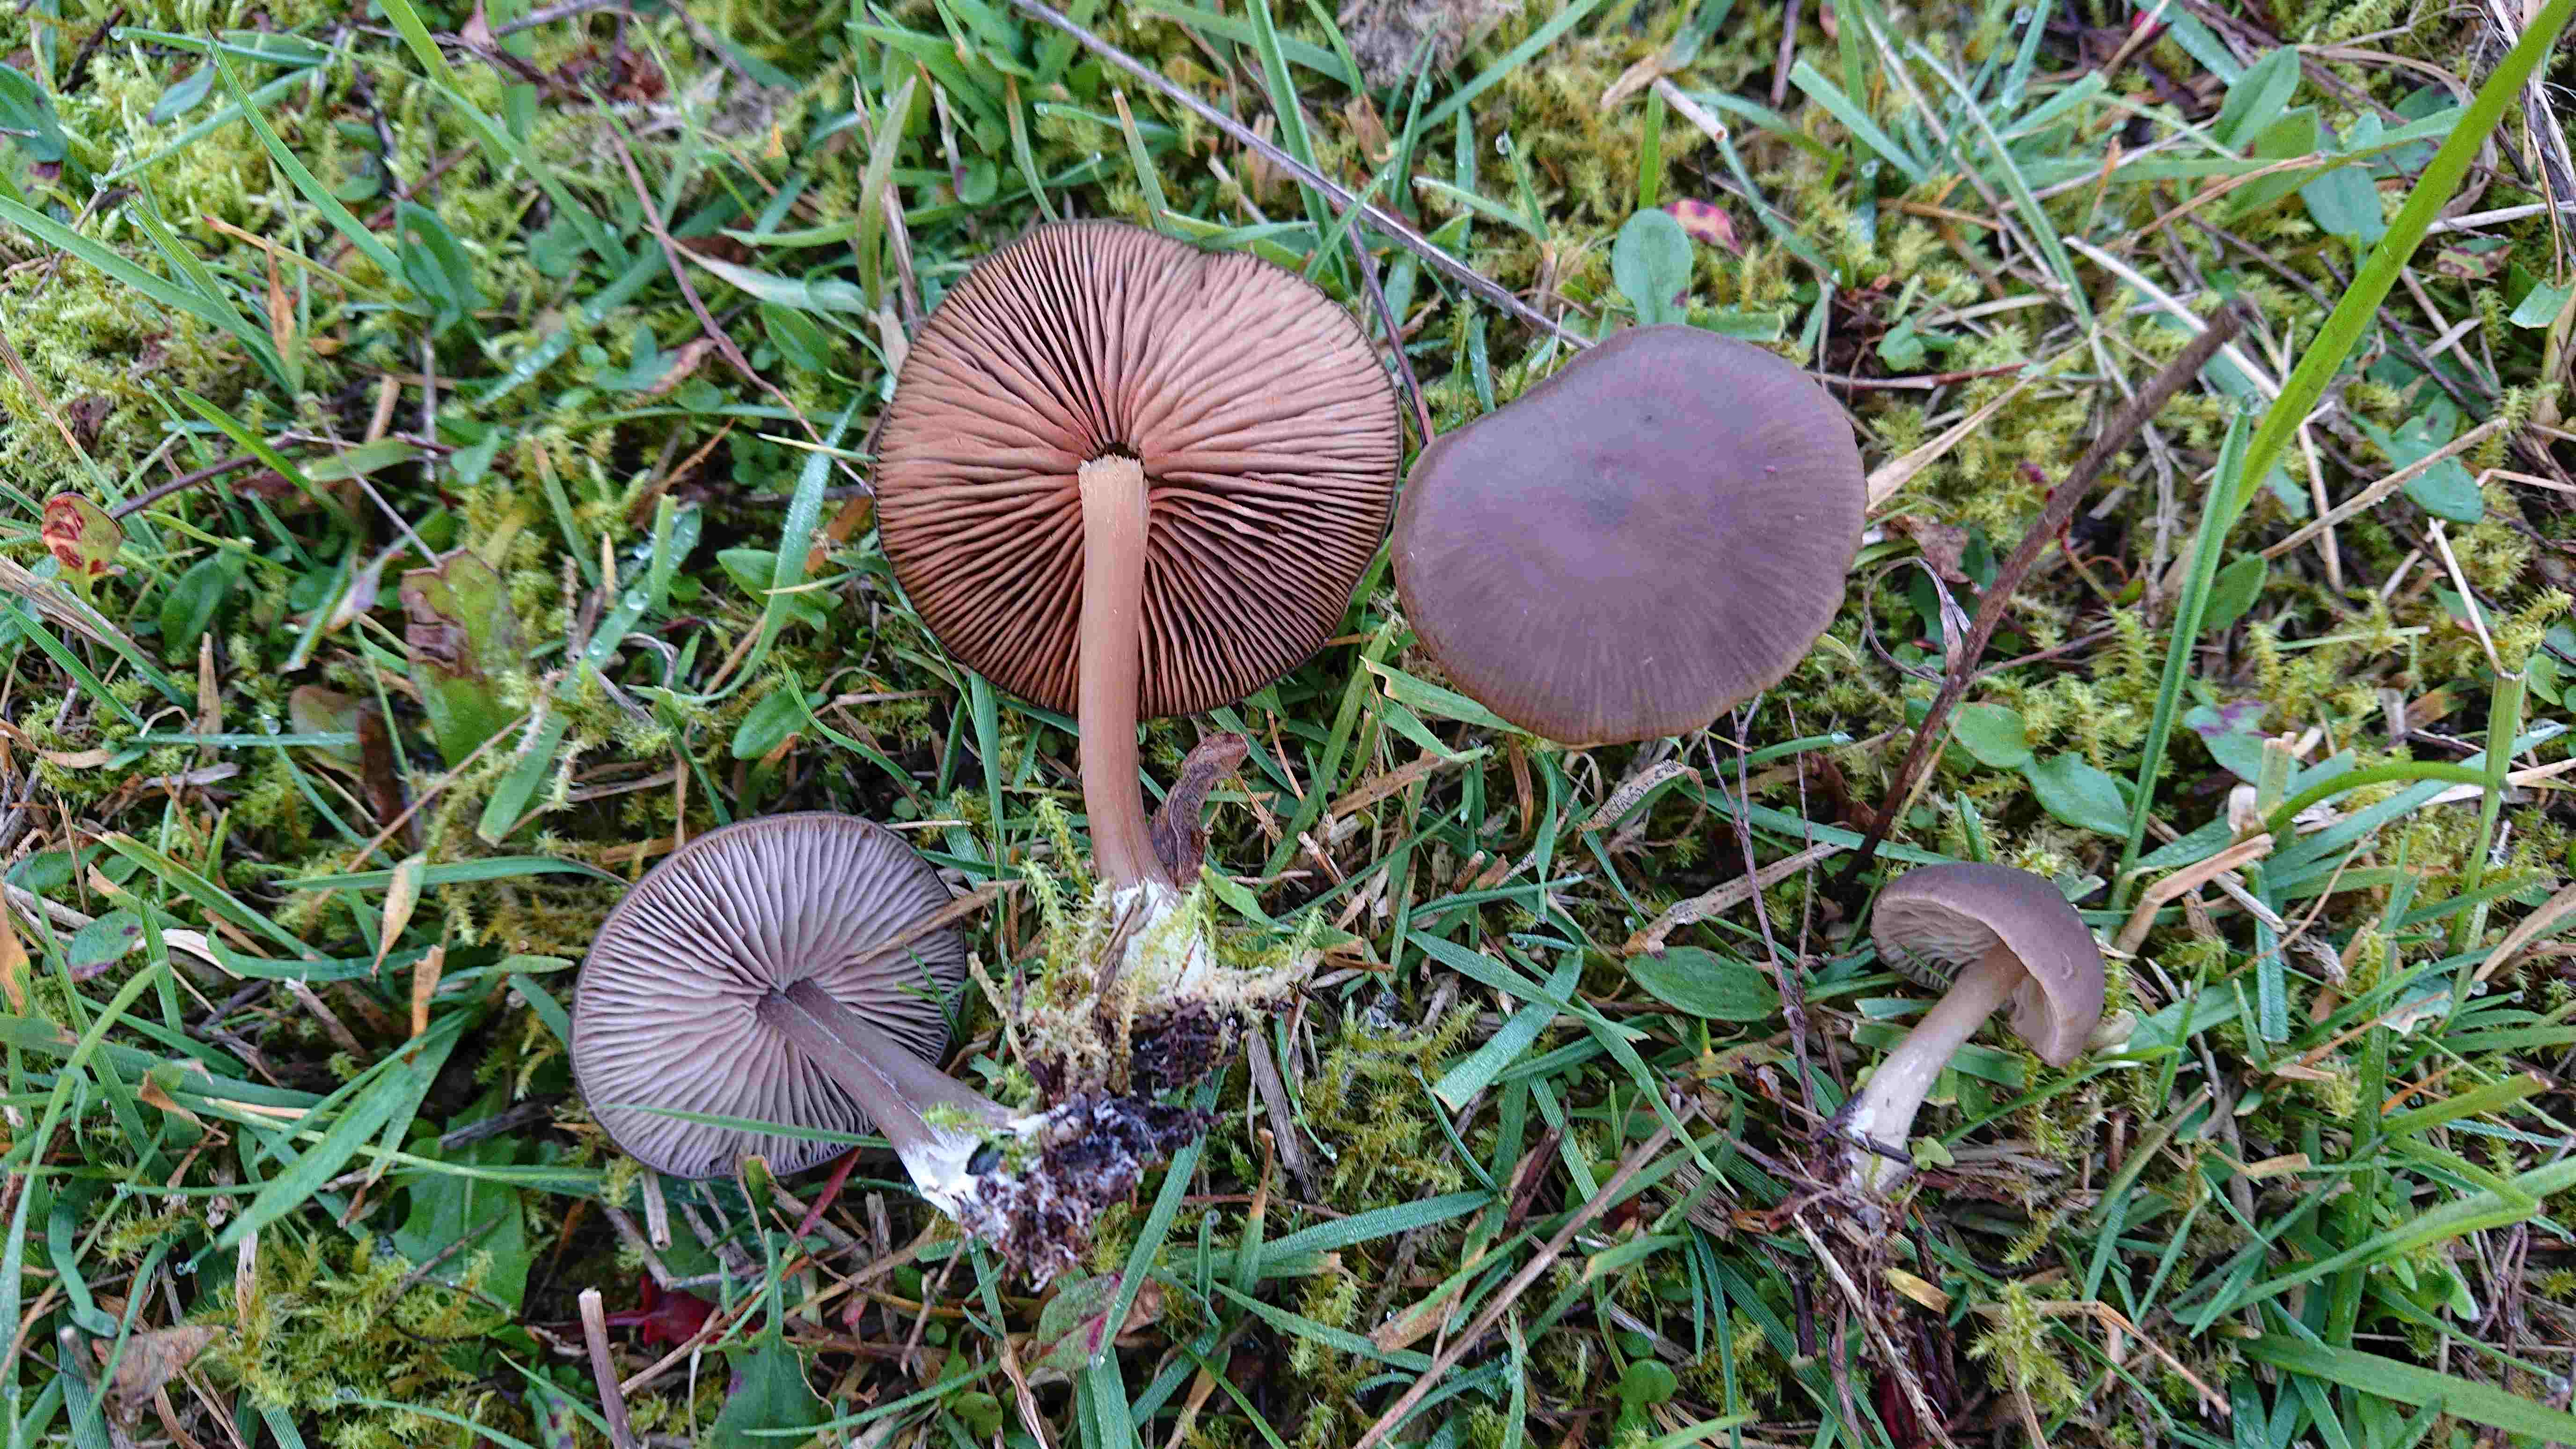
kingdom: Fungi
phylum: Basidiomycota
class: Agaricomycetes
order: Agaricales
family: Entolomataceae
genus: Entoloma
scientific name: Entoloma
